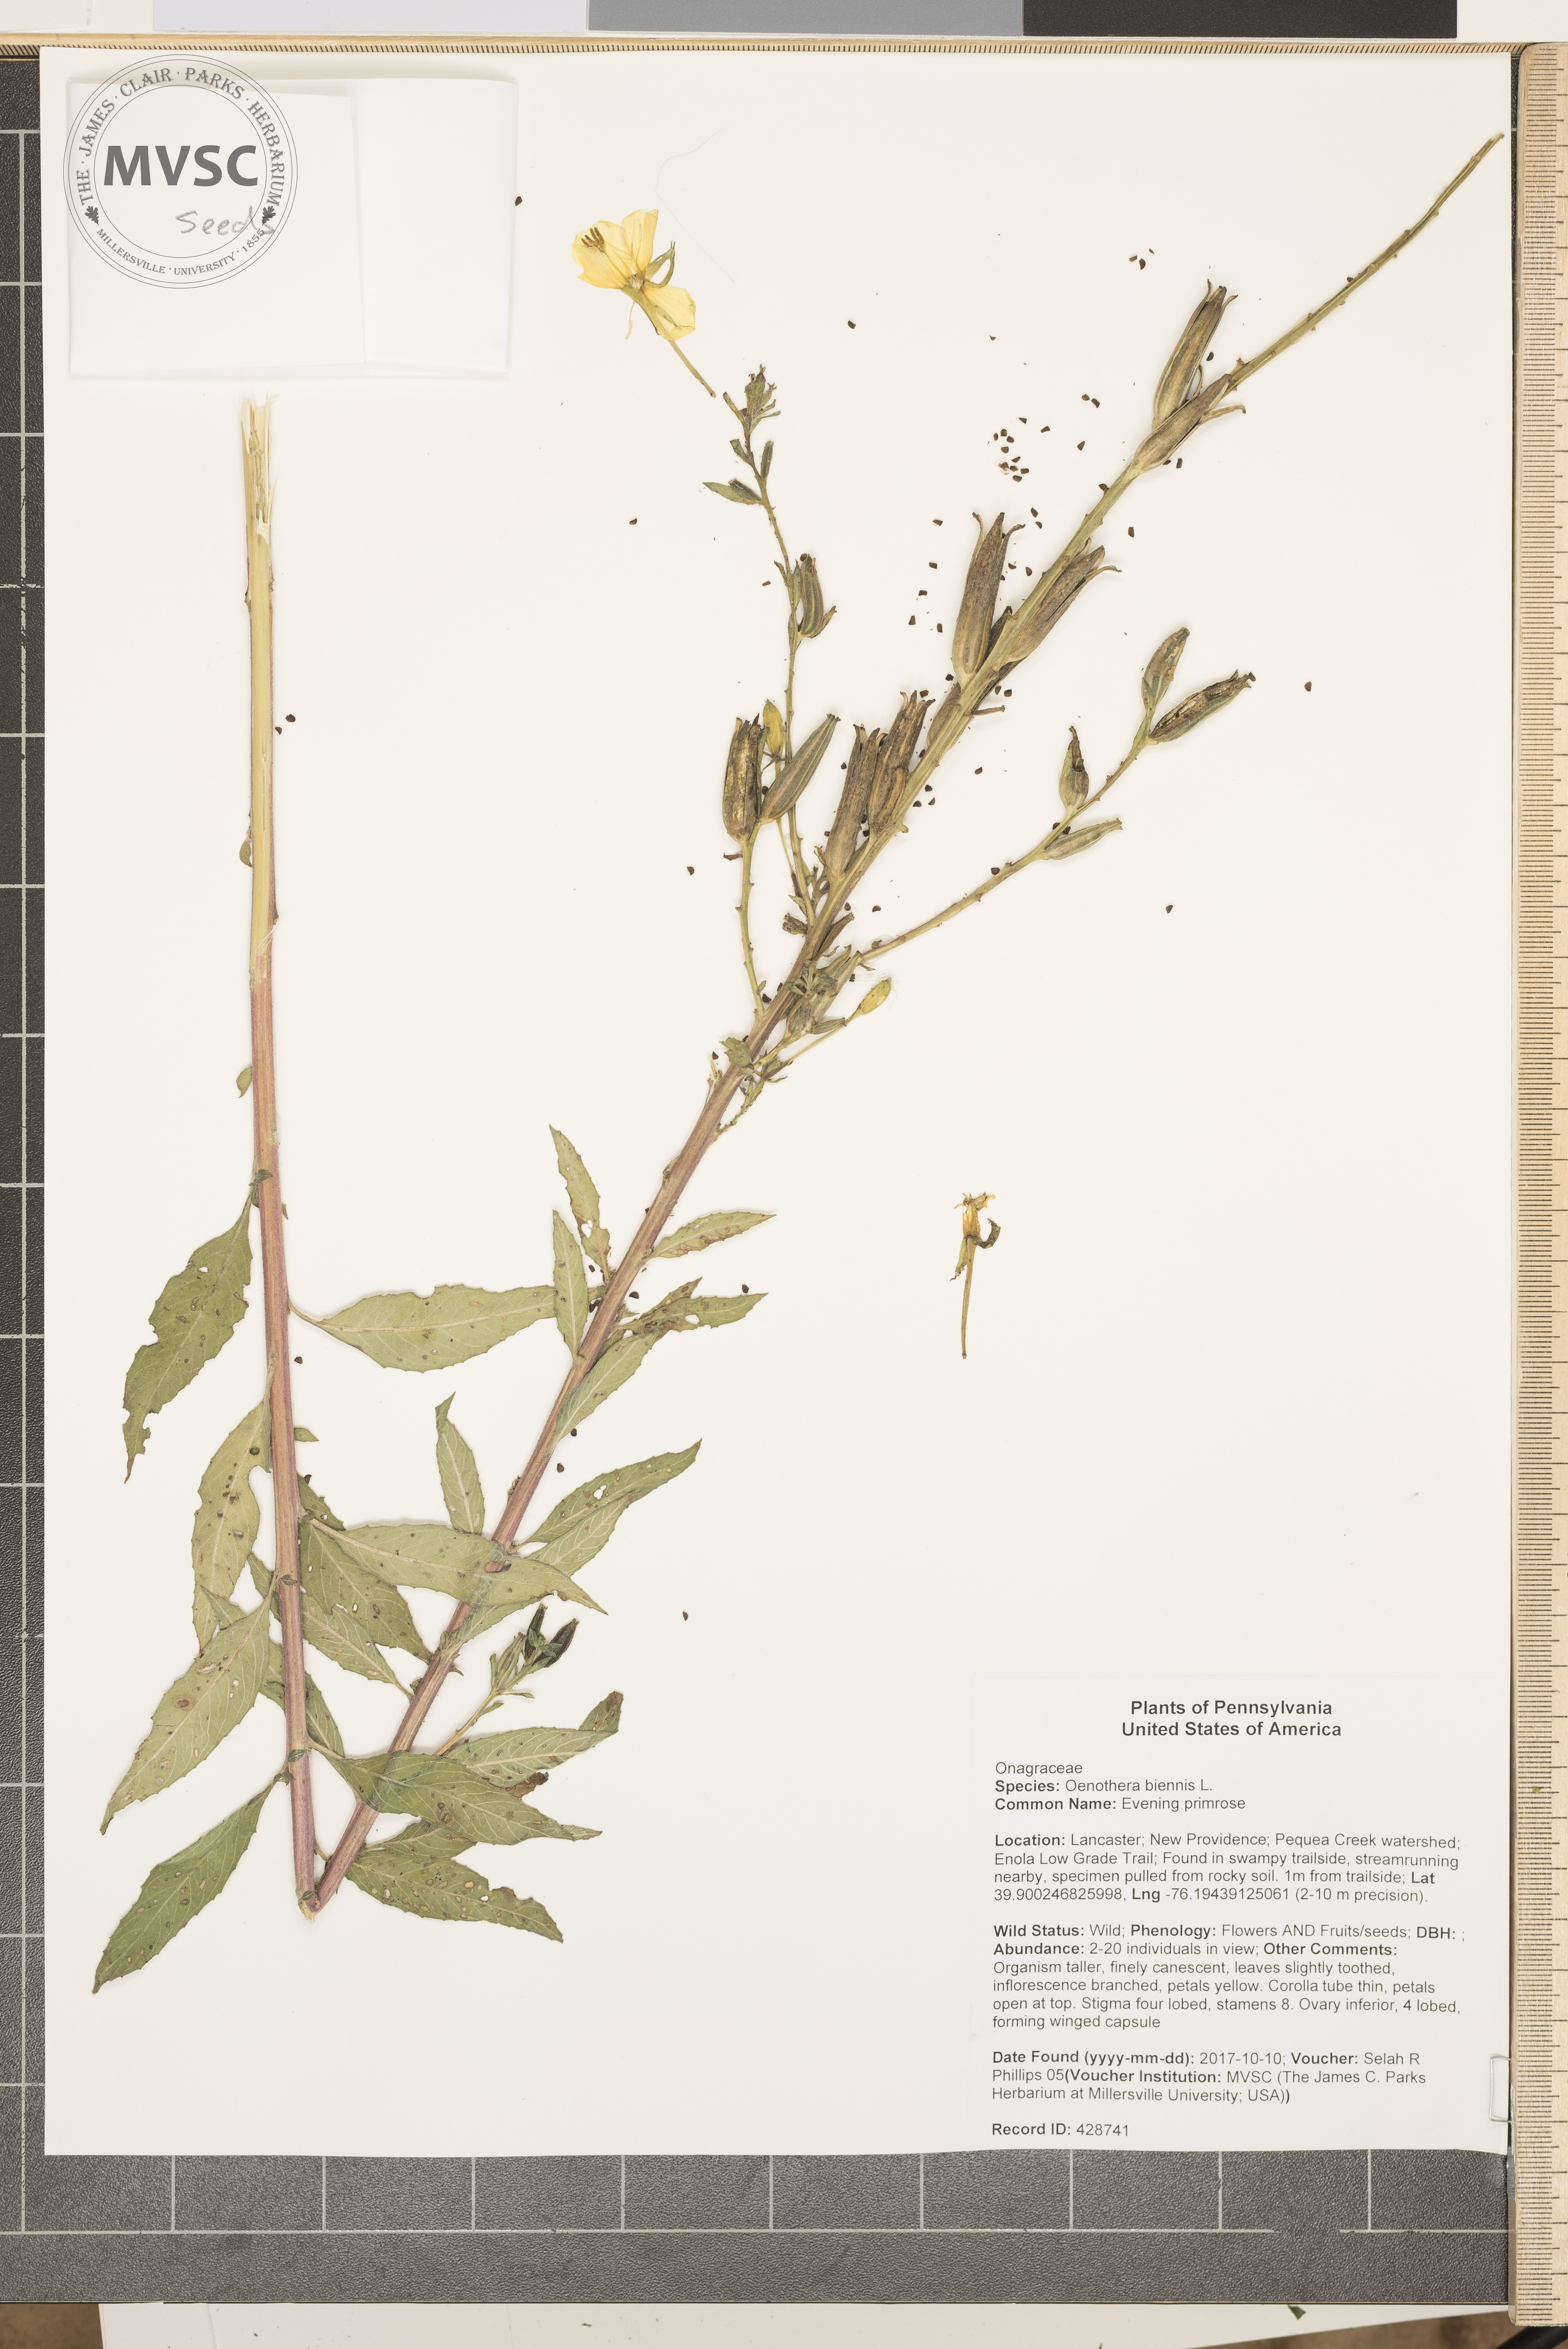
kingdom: Plantae
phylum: Tracheophyta
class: Magnoliopsida
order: Myrtales
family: Onagraceae
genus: Oenothera
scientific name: Oenothera biennis
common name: Evening primrose
